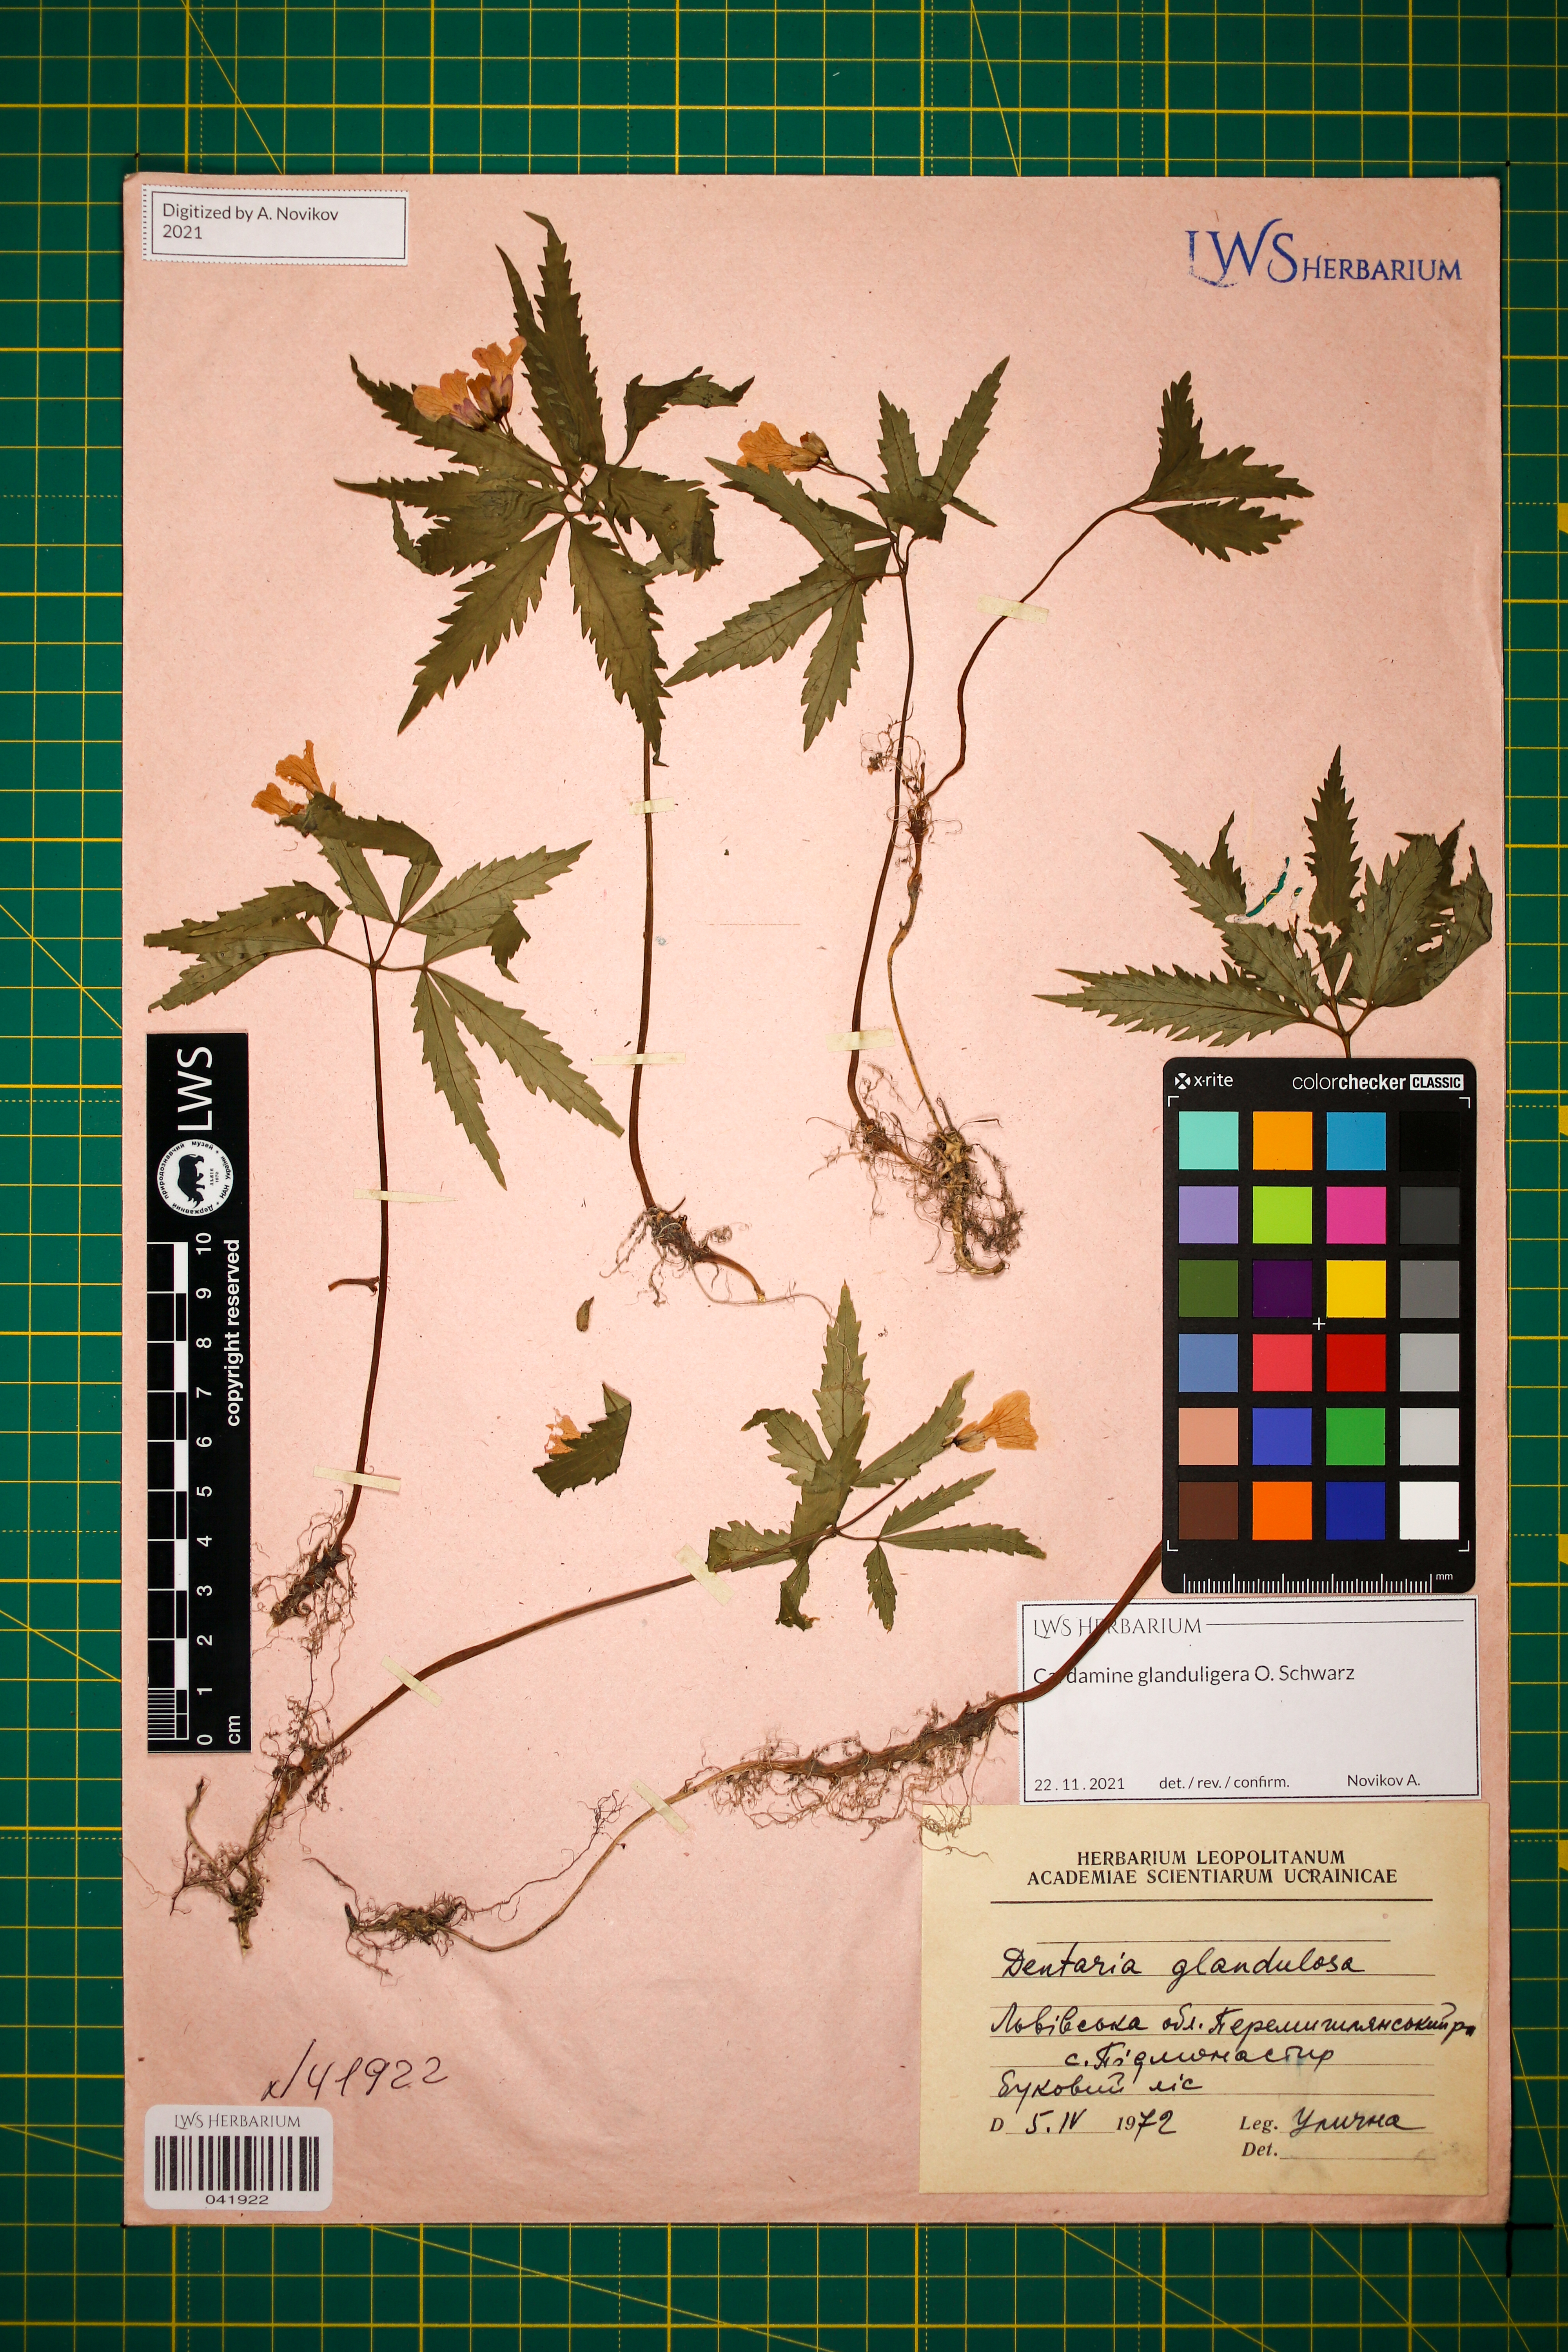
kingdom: Plantae
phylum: Tracheophyta
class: Magnoliopsida
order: Brassicales
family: Brassicaceae
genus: Cardamine
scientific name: Cardamine glanduligera
